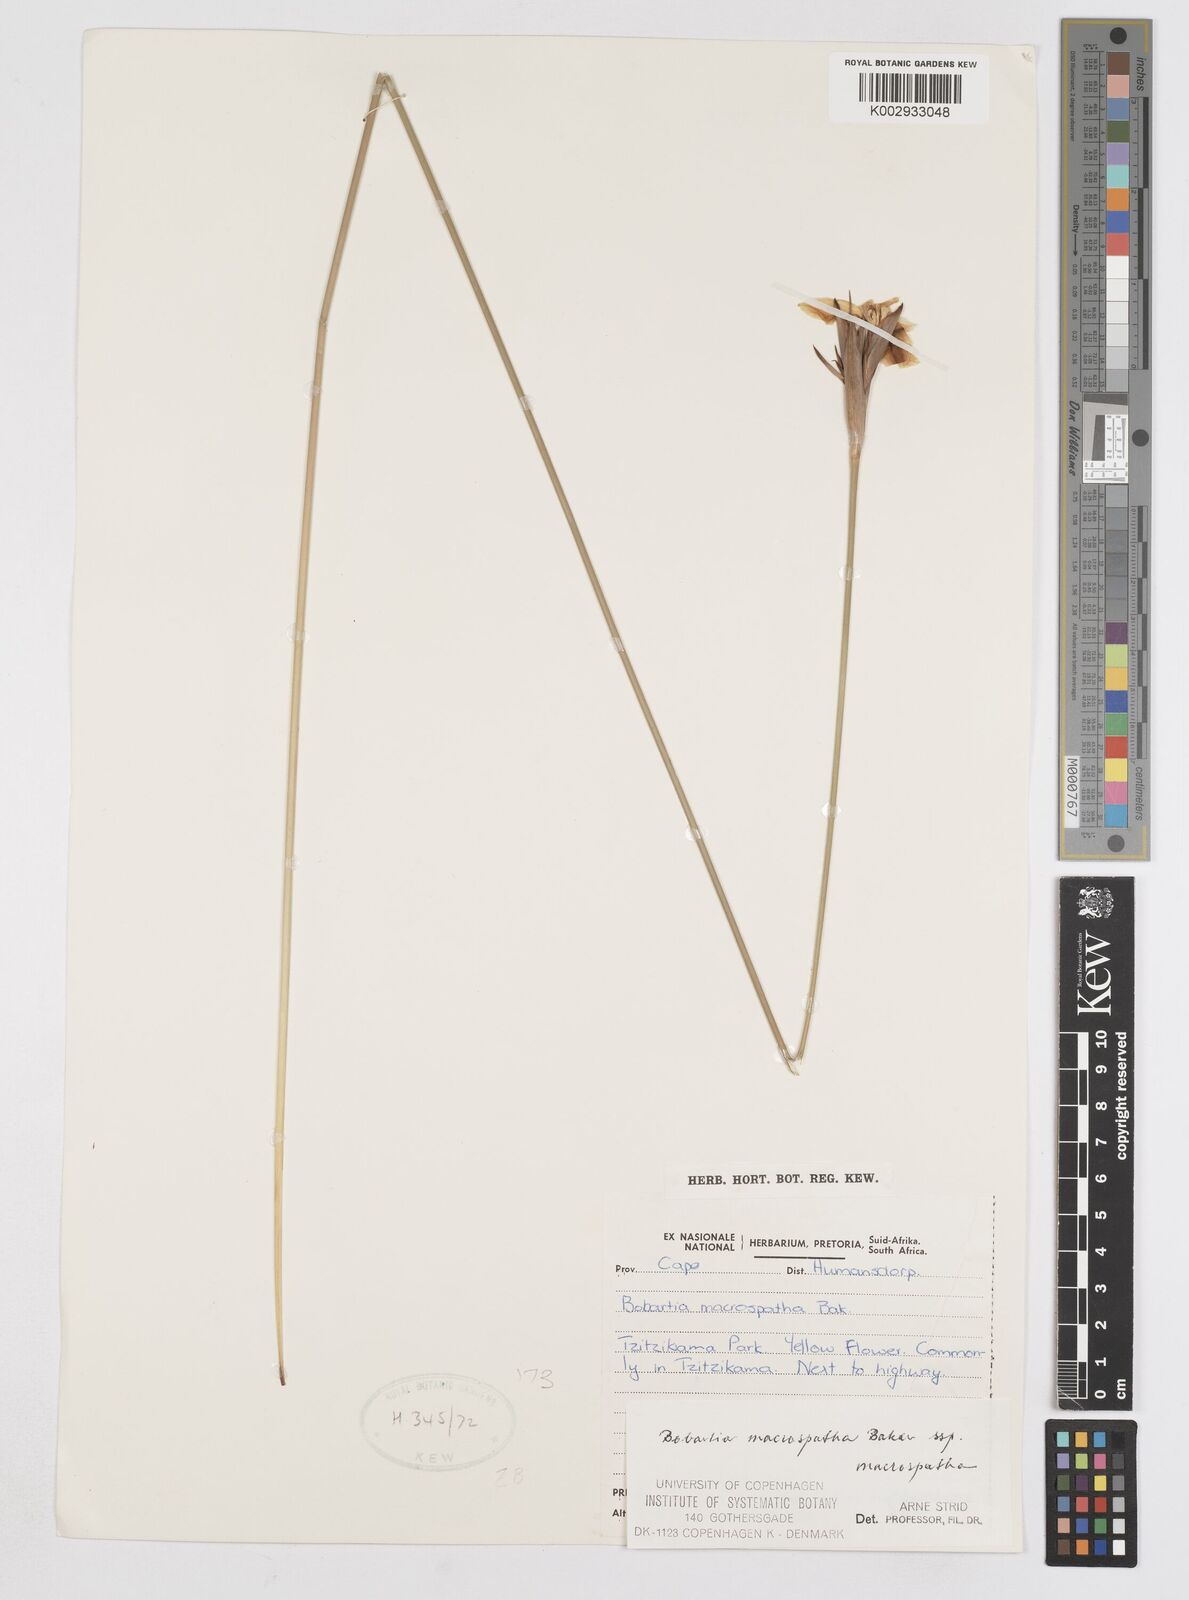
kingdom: Plantae
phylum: Tracheophyta
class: Liliopsida
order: Asparagales
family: Iridaceae
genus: Bobartia
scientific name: Bobartia macrospatha
